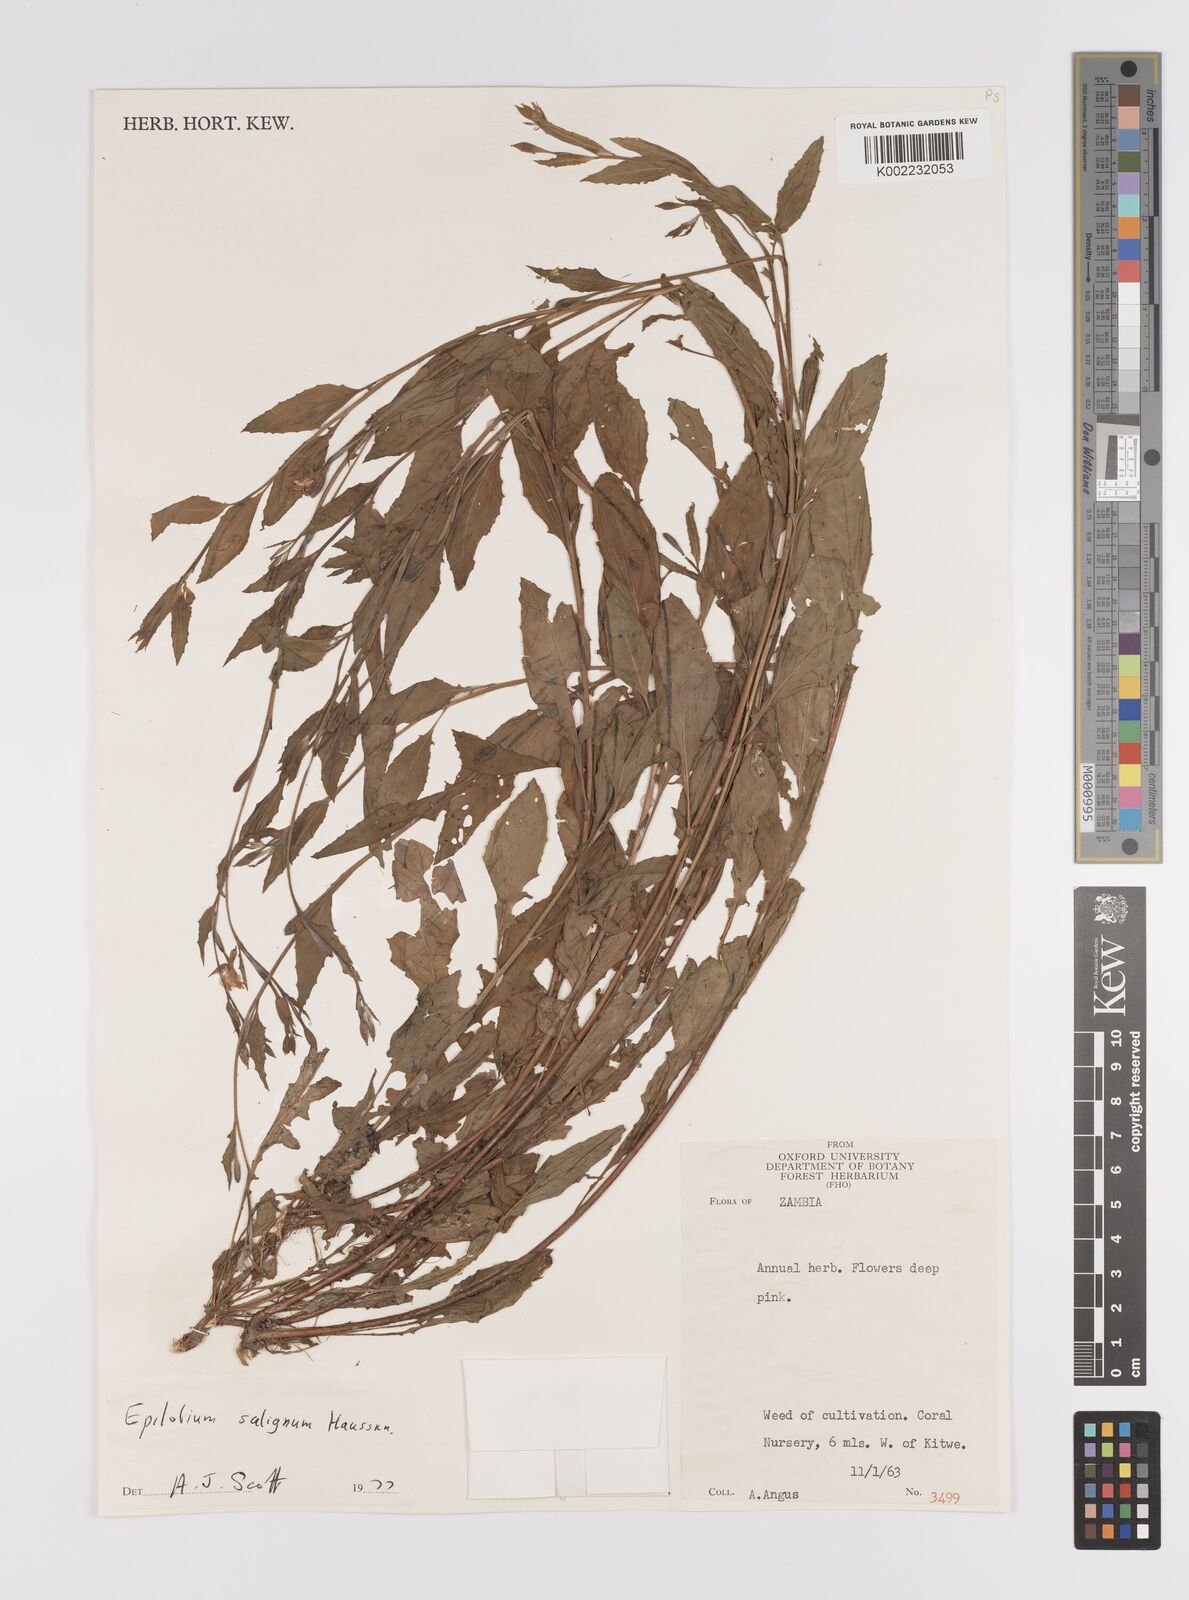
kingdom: Plantae
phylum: Tracheophyta
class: Magnoliopsida
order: Myrtales
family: Onagraceae
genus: Epilobium
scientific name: Epilobium salignum
